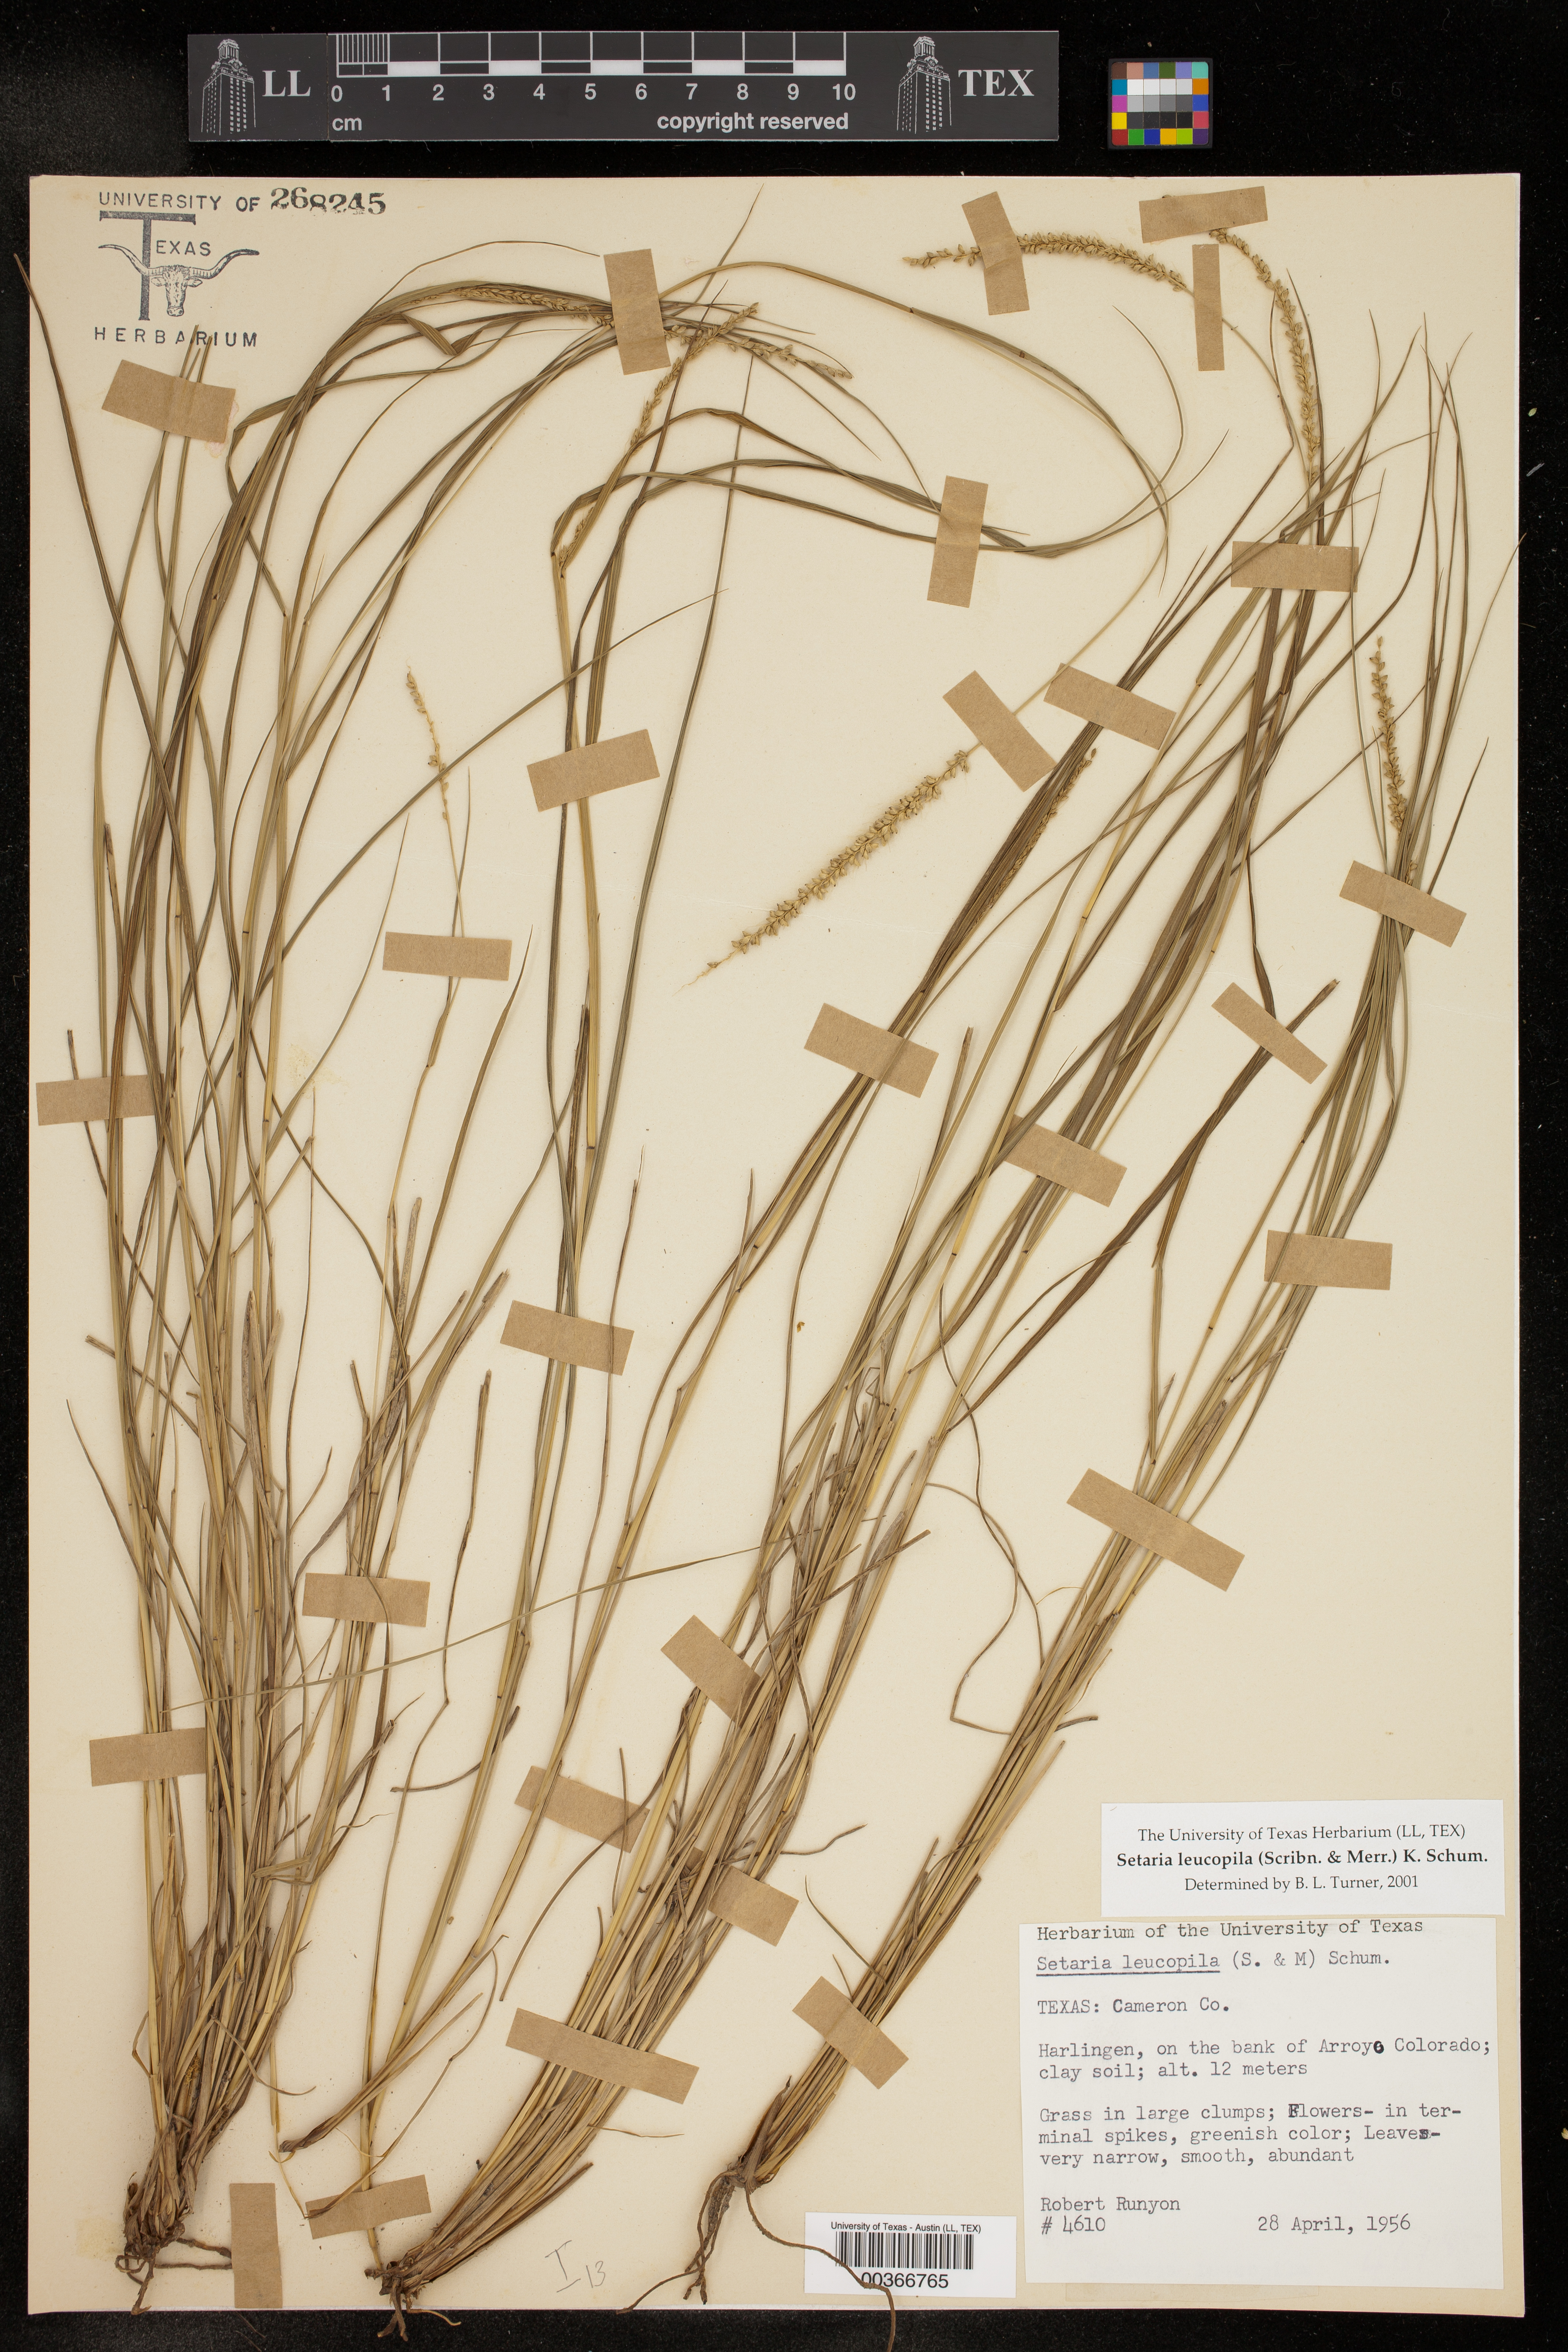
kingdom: Plantae
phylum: Tracheophyta
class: Liliopsida
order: Poales
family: Poaceae
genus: Setaria
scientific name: Setaria leucopila
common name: Plains bristle grass
